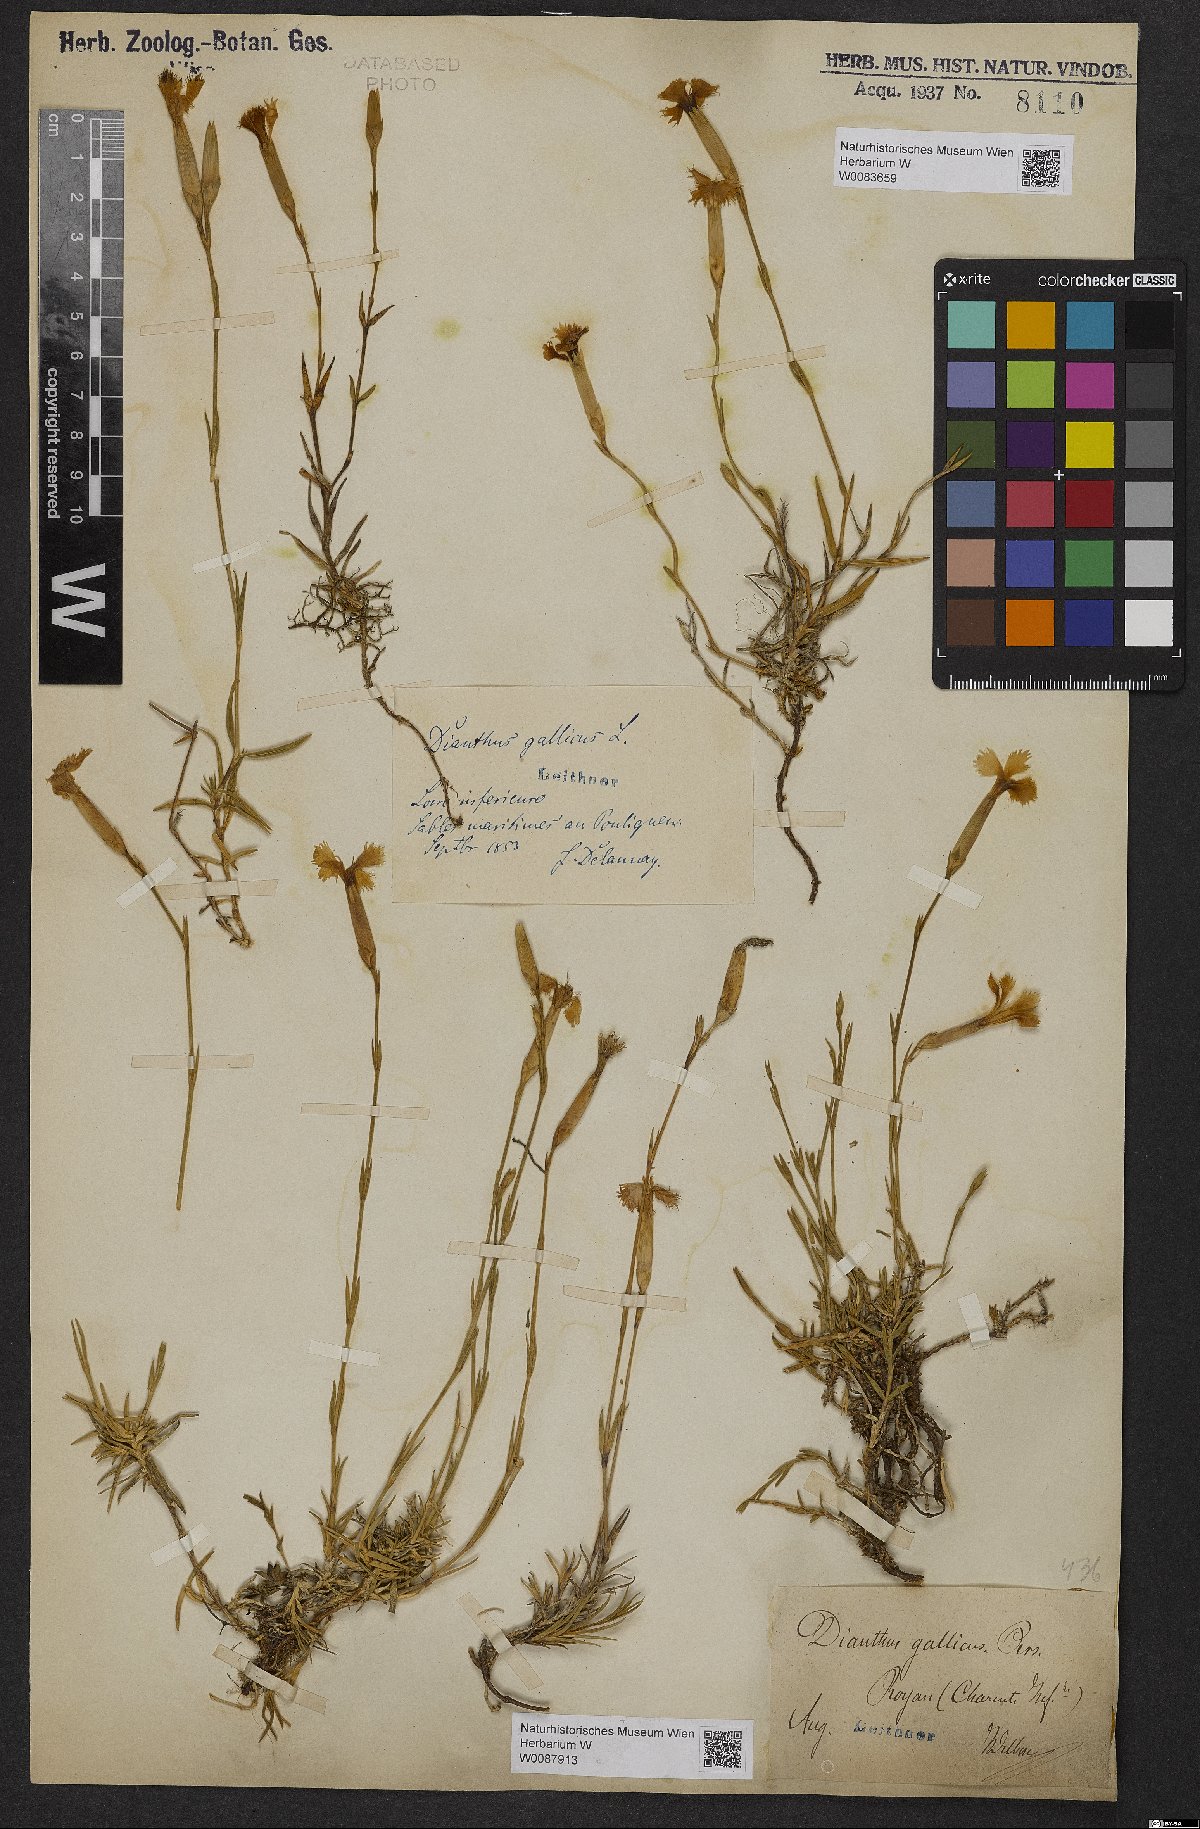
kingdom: Plantae
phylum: Tracheophyta
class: Magnoliopsida
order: Caryophyllales
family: Caryophyllaceae
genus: Dianthus
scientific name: Dianthus gallicus
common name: Jersey pink
